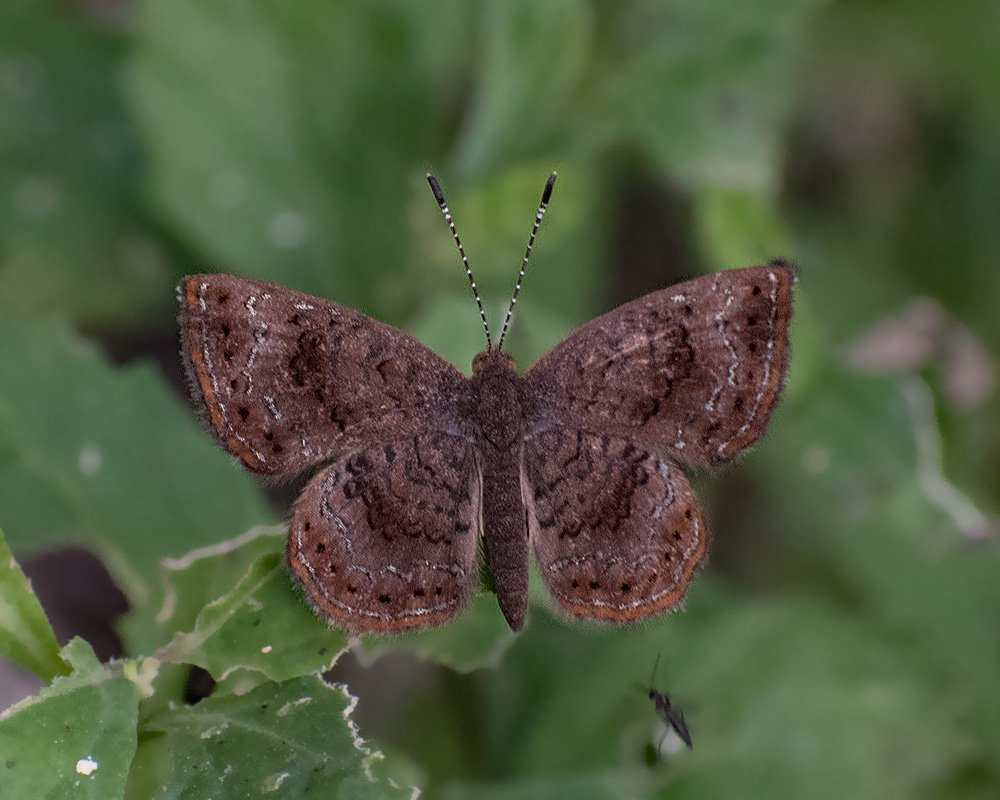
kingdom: Animalia
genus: Calephelis
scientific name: Calephelis perditalis
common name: Rounded Metalmark
